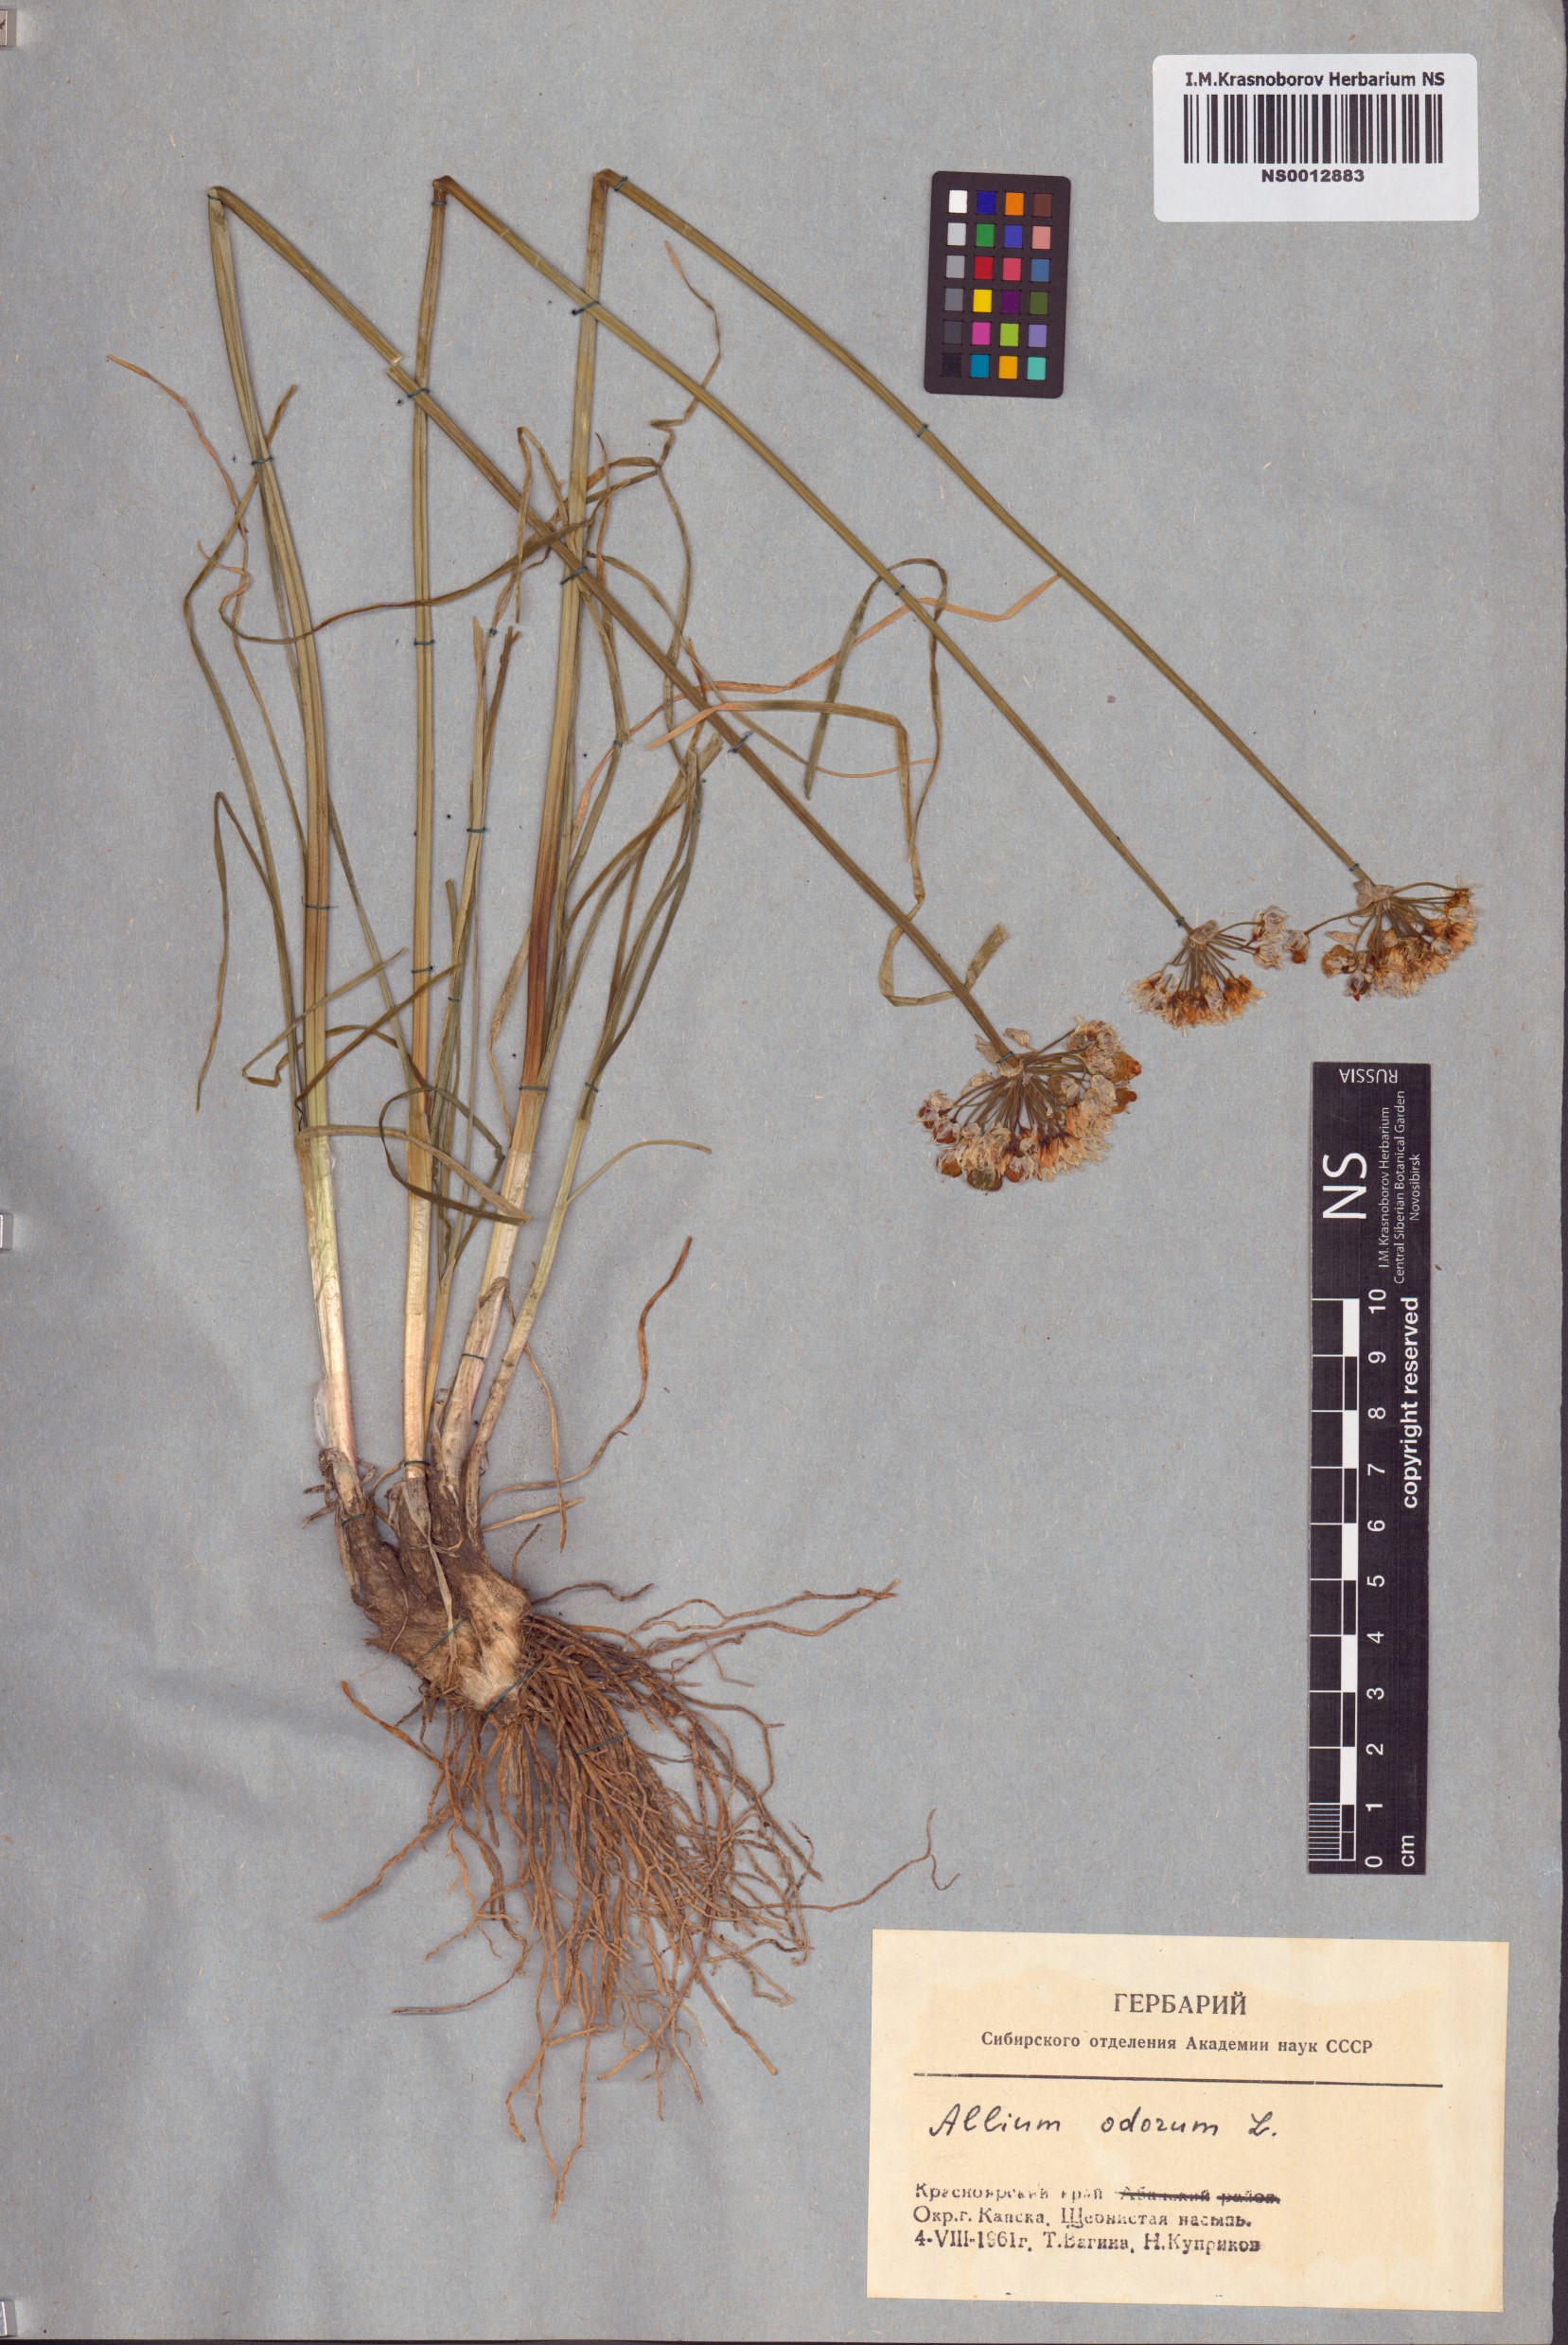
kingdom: Plantae
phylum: Tracheophyta
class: Liliopsida
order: Asparagales
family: Amaryllidaceae
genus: Allium
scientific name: Allium ramosum
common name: Fragrant garlic
